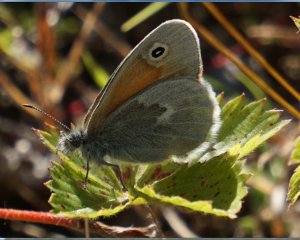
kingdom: Animalia
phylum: Arthropoda
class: Insecta
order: Lepidoptera
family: Nymphalidae
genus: Coenonympha
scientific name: Coenonympha tullia
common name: Large Heath
